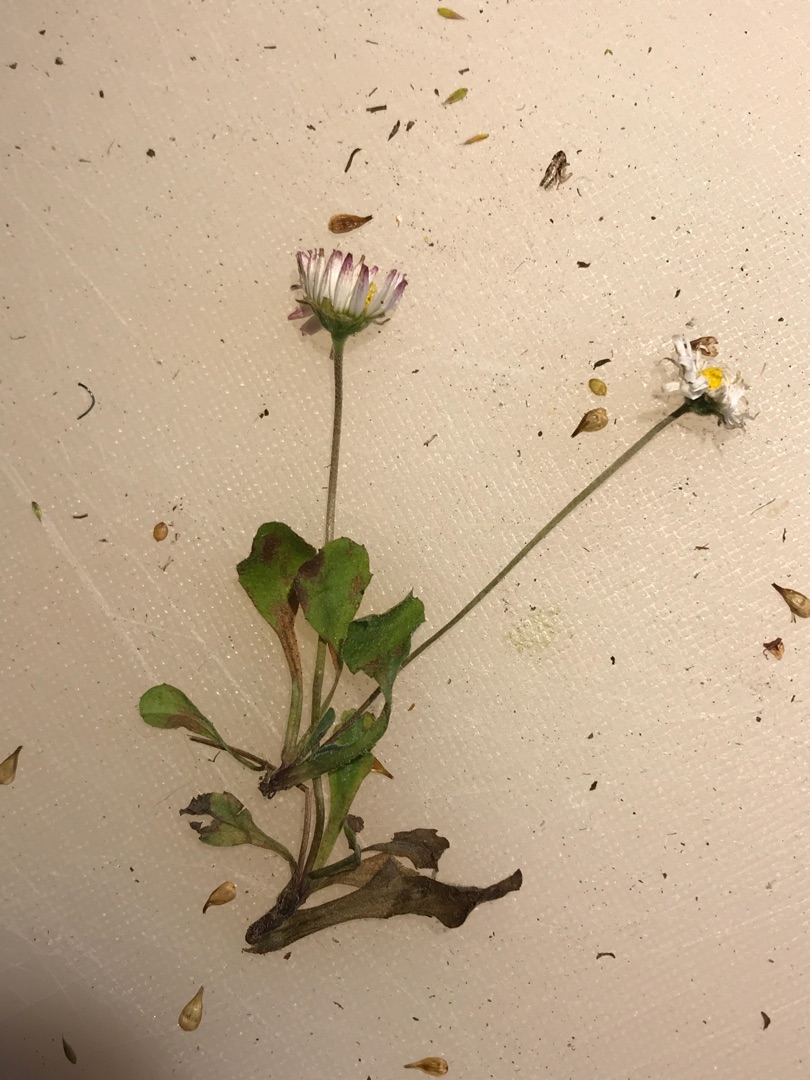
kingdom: Plantae
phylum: Tracheophyta
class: Magnoliopsida
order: Asterales
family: Asteraceae
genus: Bellis
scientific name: Bellis perennis
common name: Tusindfryd
